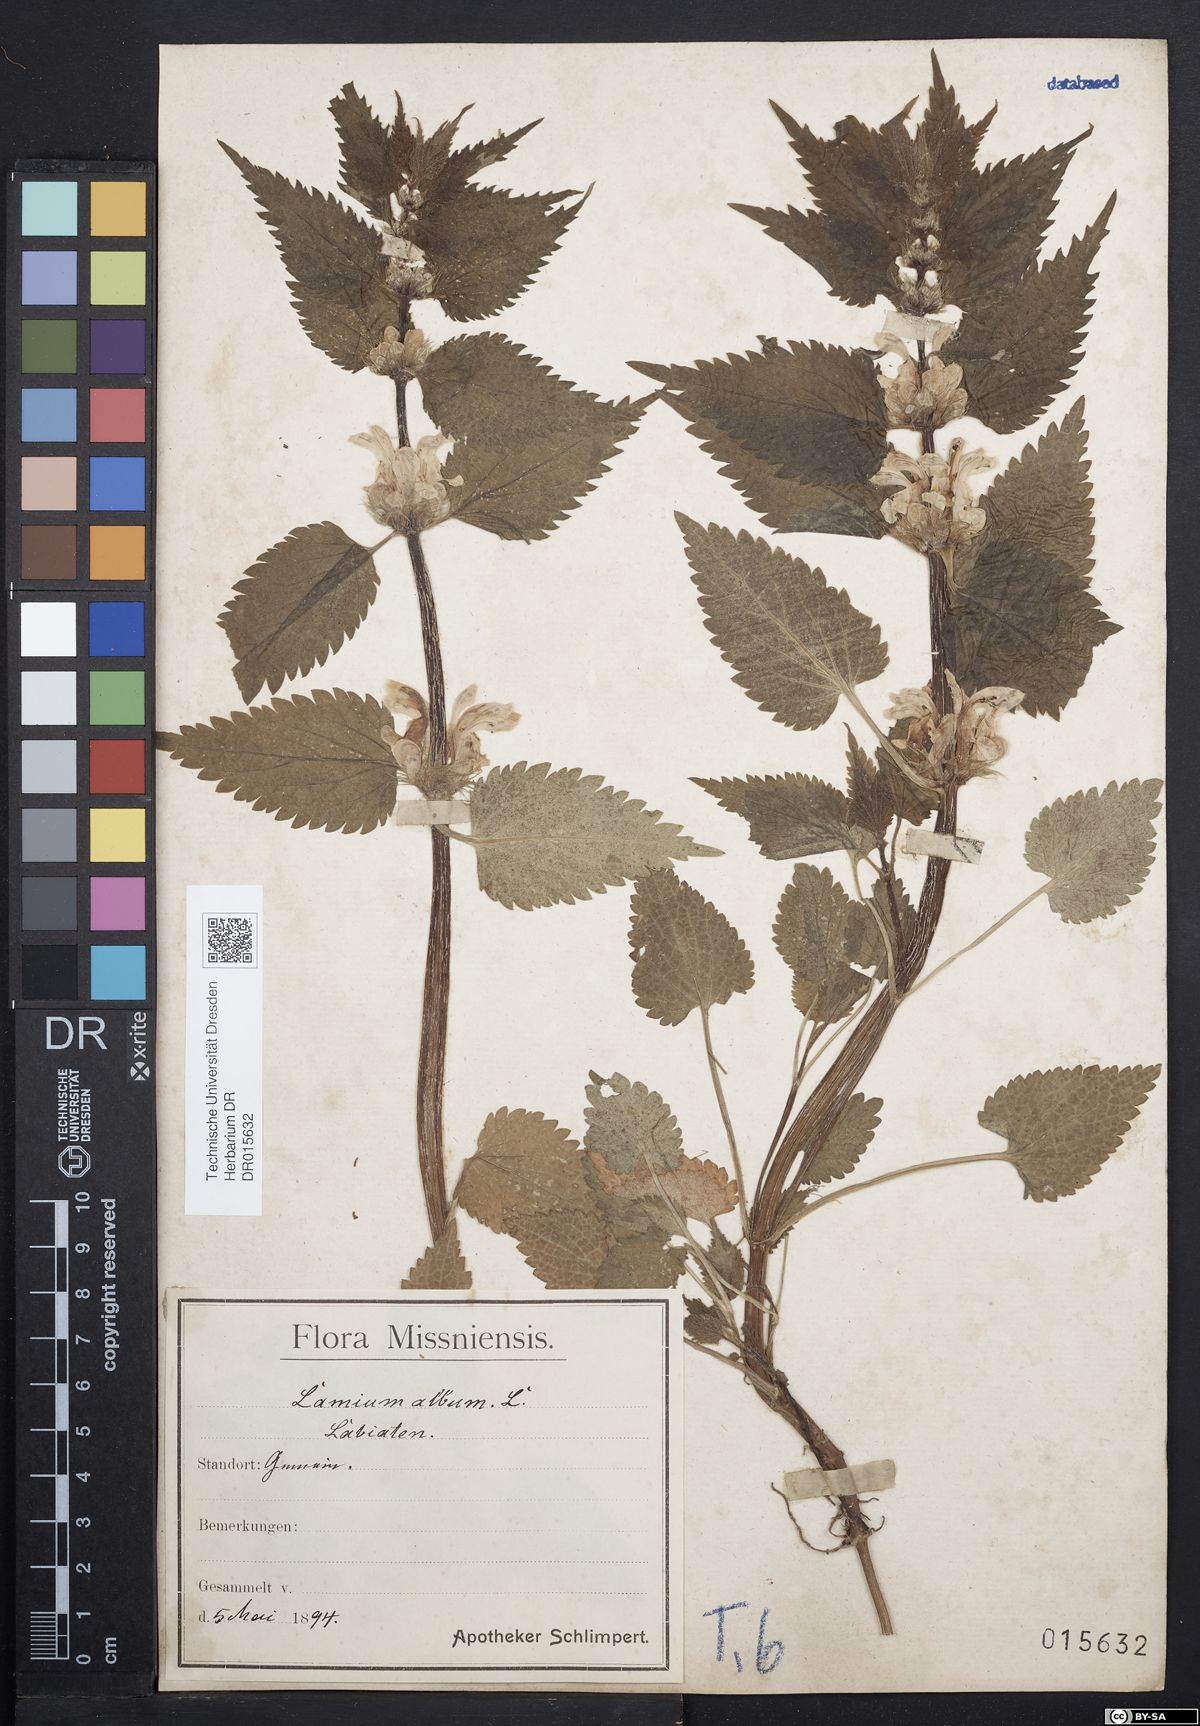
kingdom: Plantae
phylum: Tracheophyta
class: Magnoliopsida
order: Lamiales
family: Lamiaceae
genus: Lamium
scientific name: Lamium album
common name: White dead-nettle
